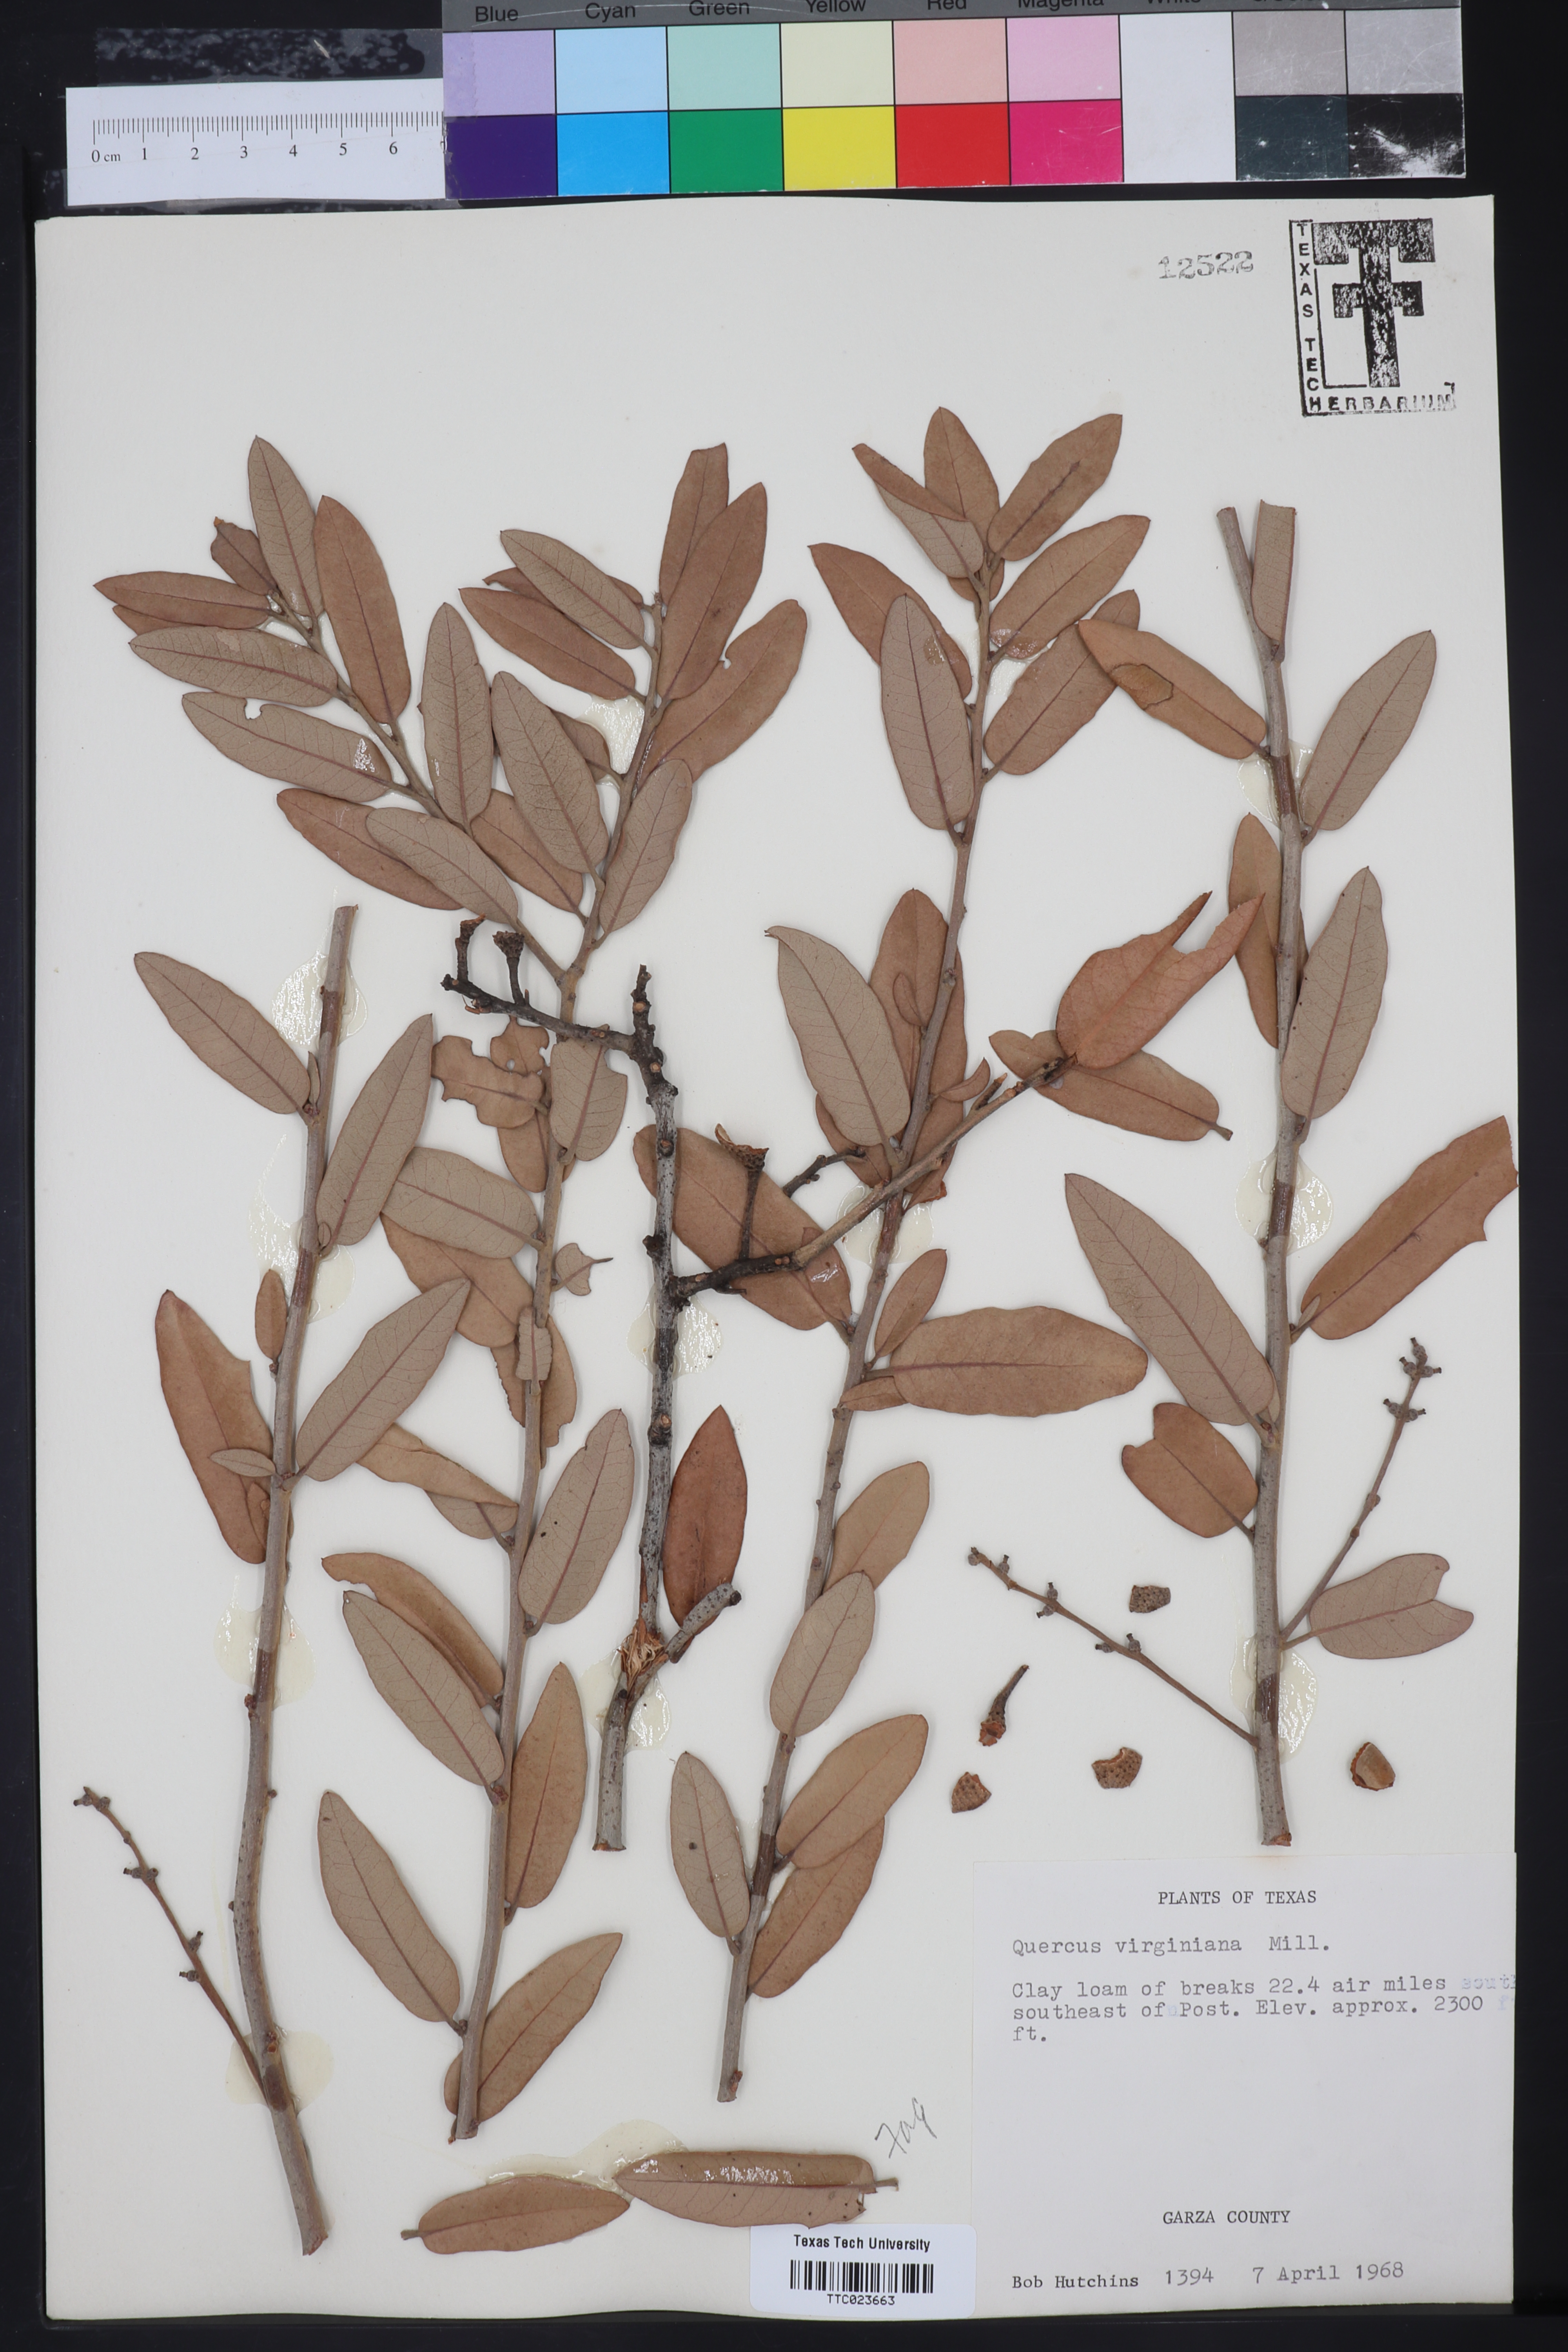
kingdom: Plantae
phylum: Tracheophyta
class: Magnoliopsida
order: Fagales
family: Fagaceae
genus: Quercus
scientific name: Quercus virginiana
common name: Southern live oak
